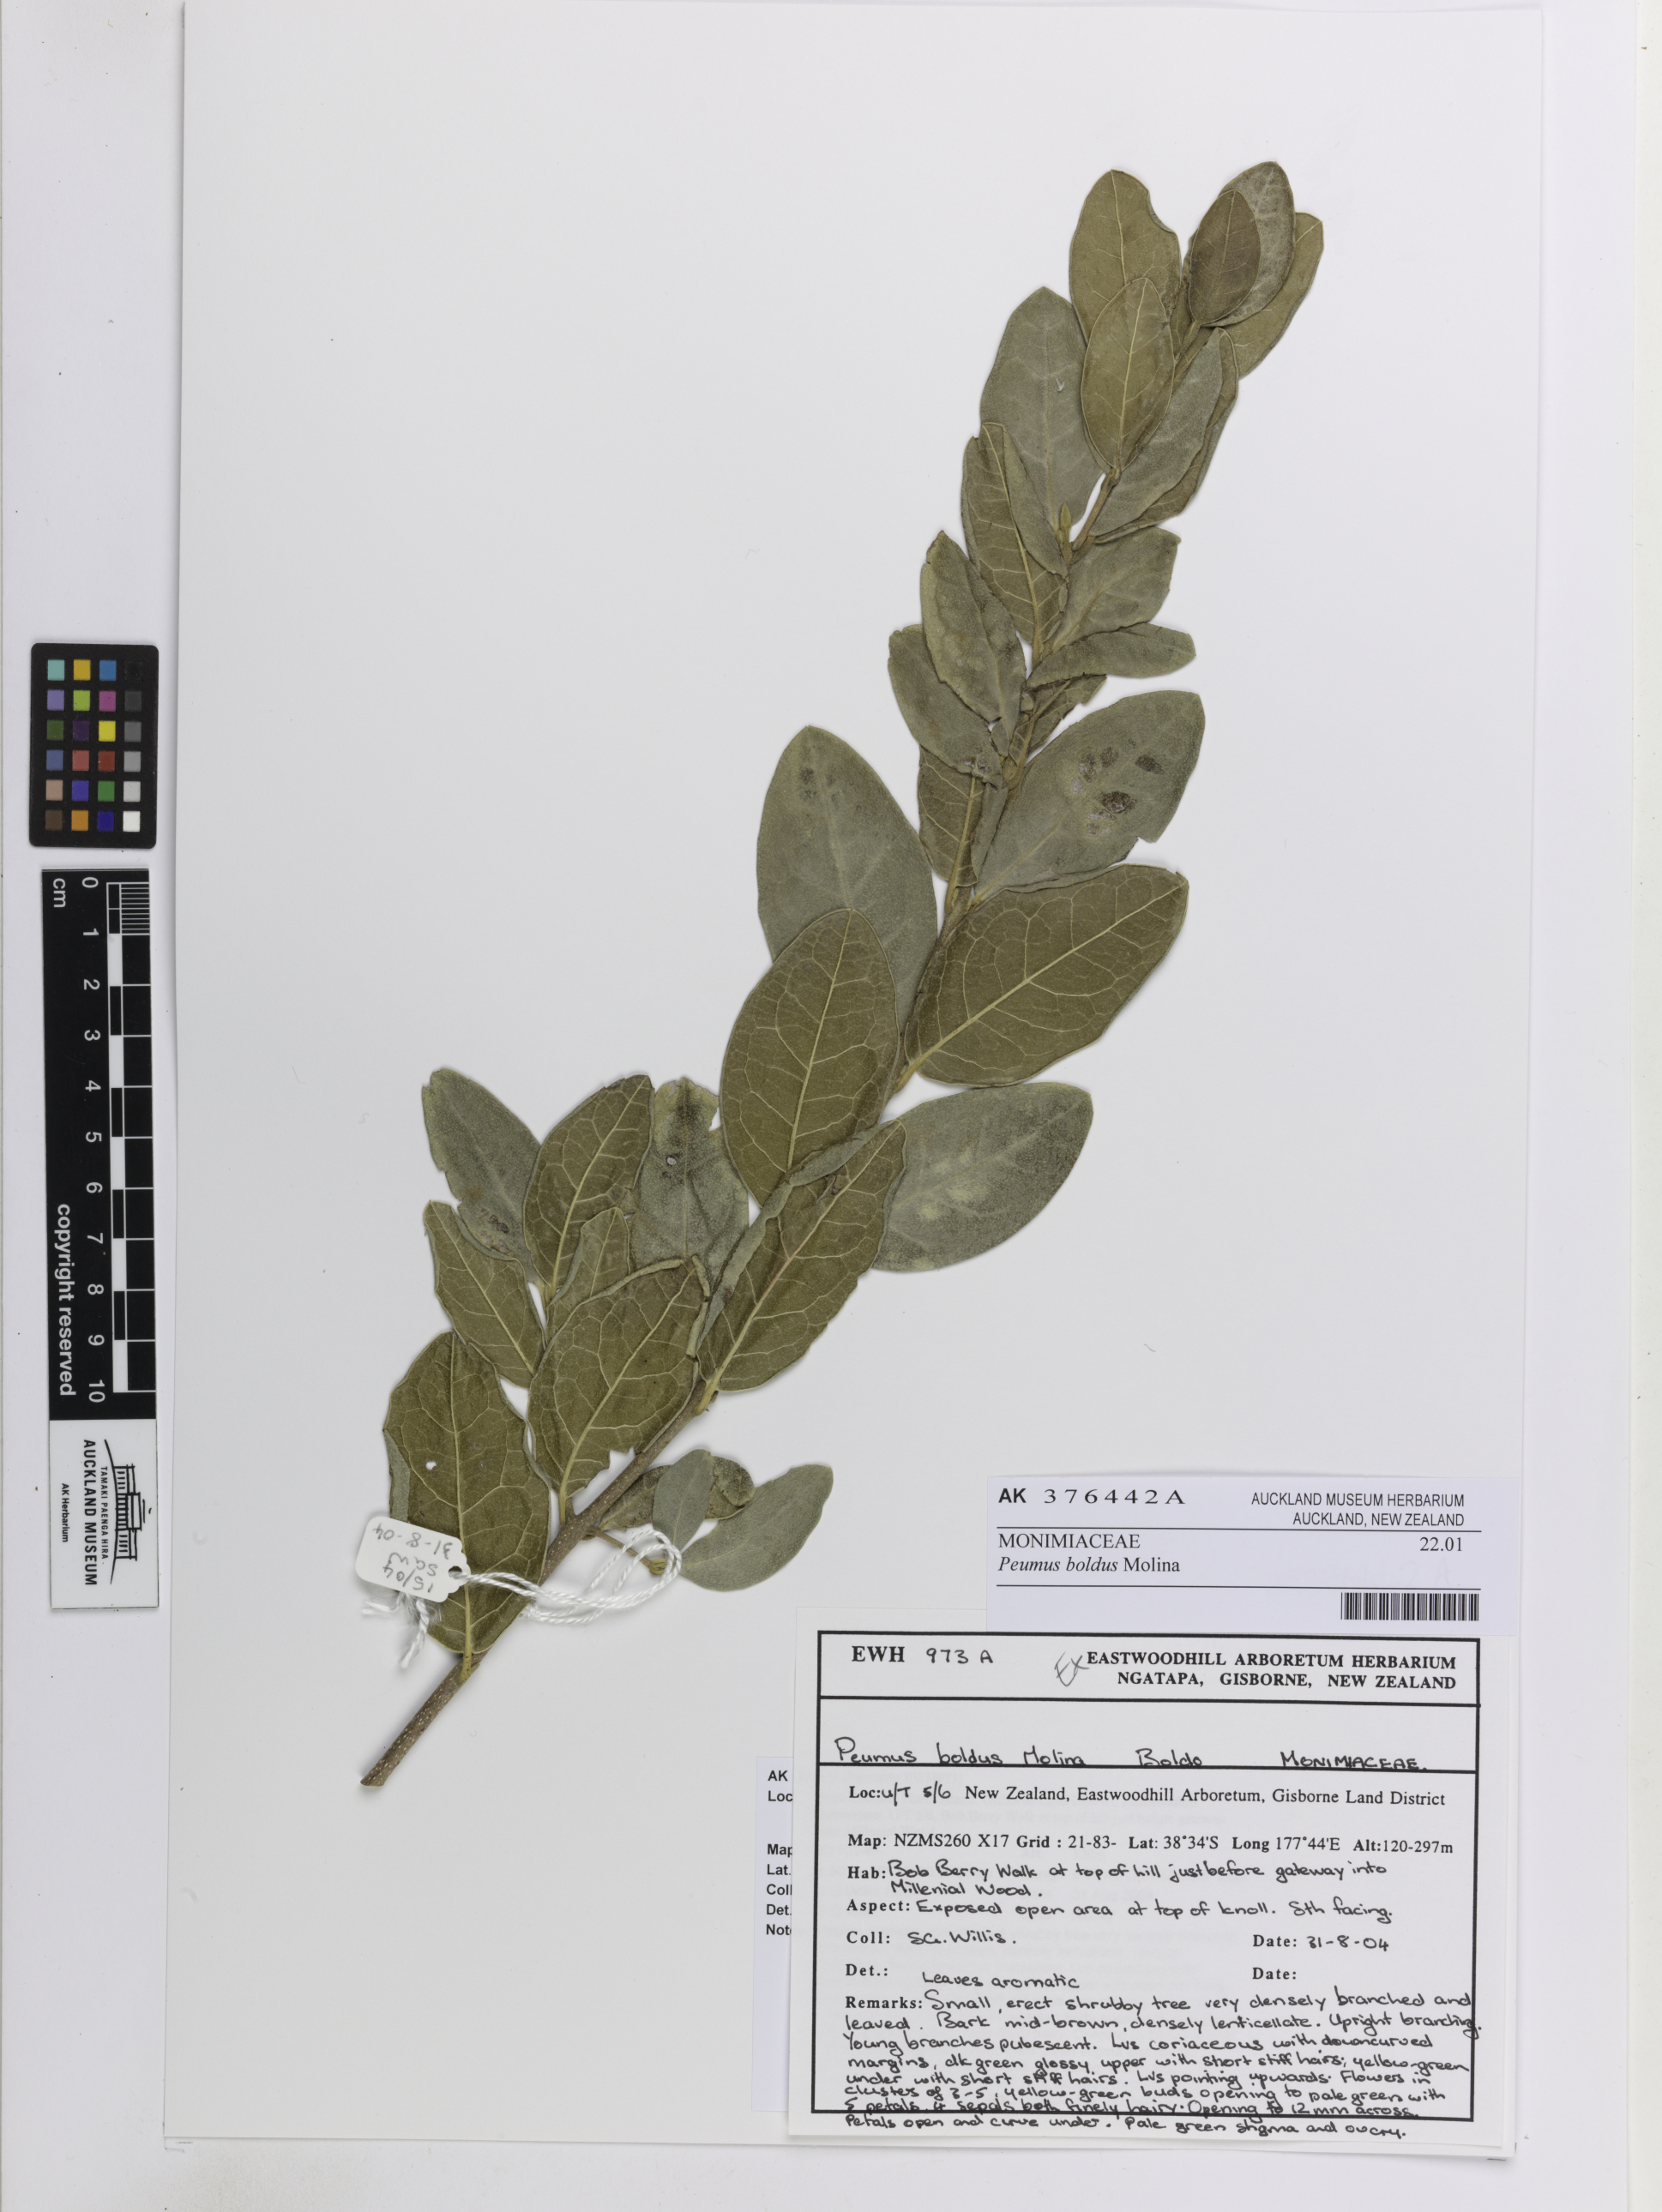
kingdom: Plantae
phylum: Tracheophyta
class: Magnoliopsida
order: Laurales
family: Monimiaceae
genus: Peumus
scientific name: Peumus boldus
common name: Boldo
